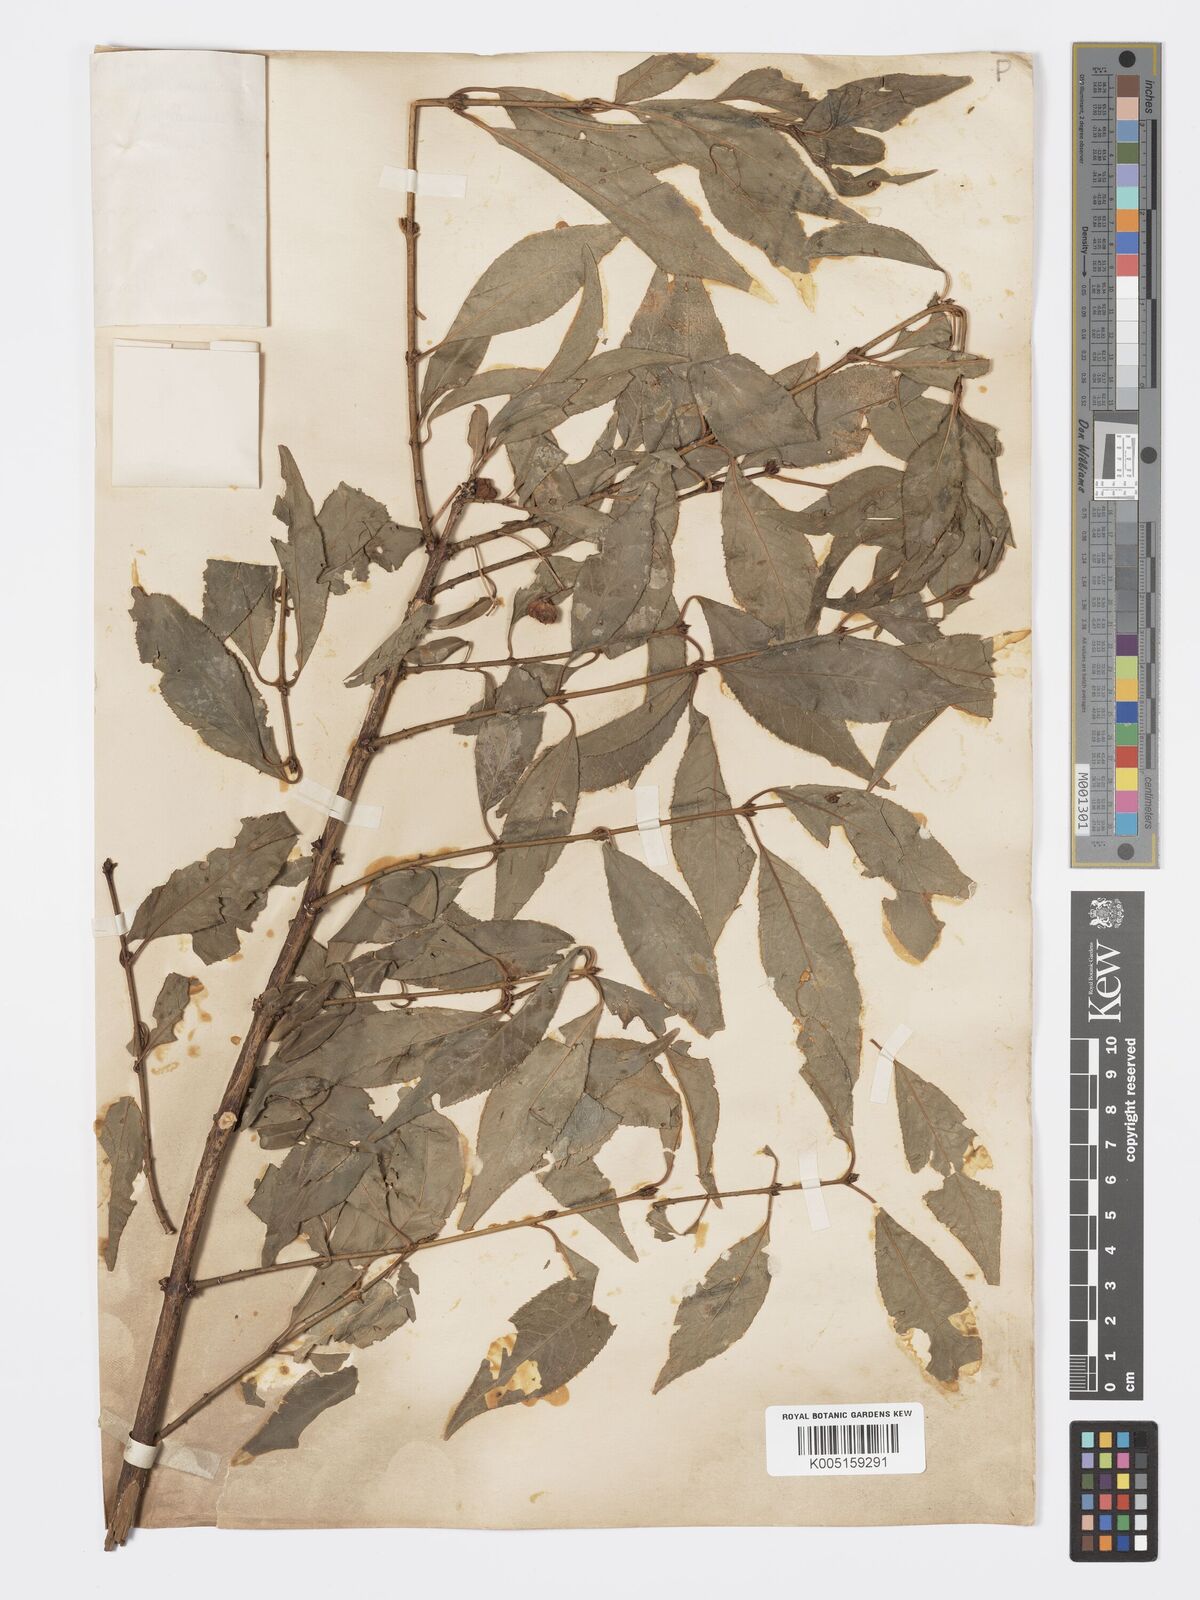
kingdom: Plantae
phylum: Tracheophyta
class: Magnoliopsida
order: Celastrales
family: Celastraceae
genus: Euonymus
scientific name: Euonymus maackii
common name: Hamilton's spindletree
